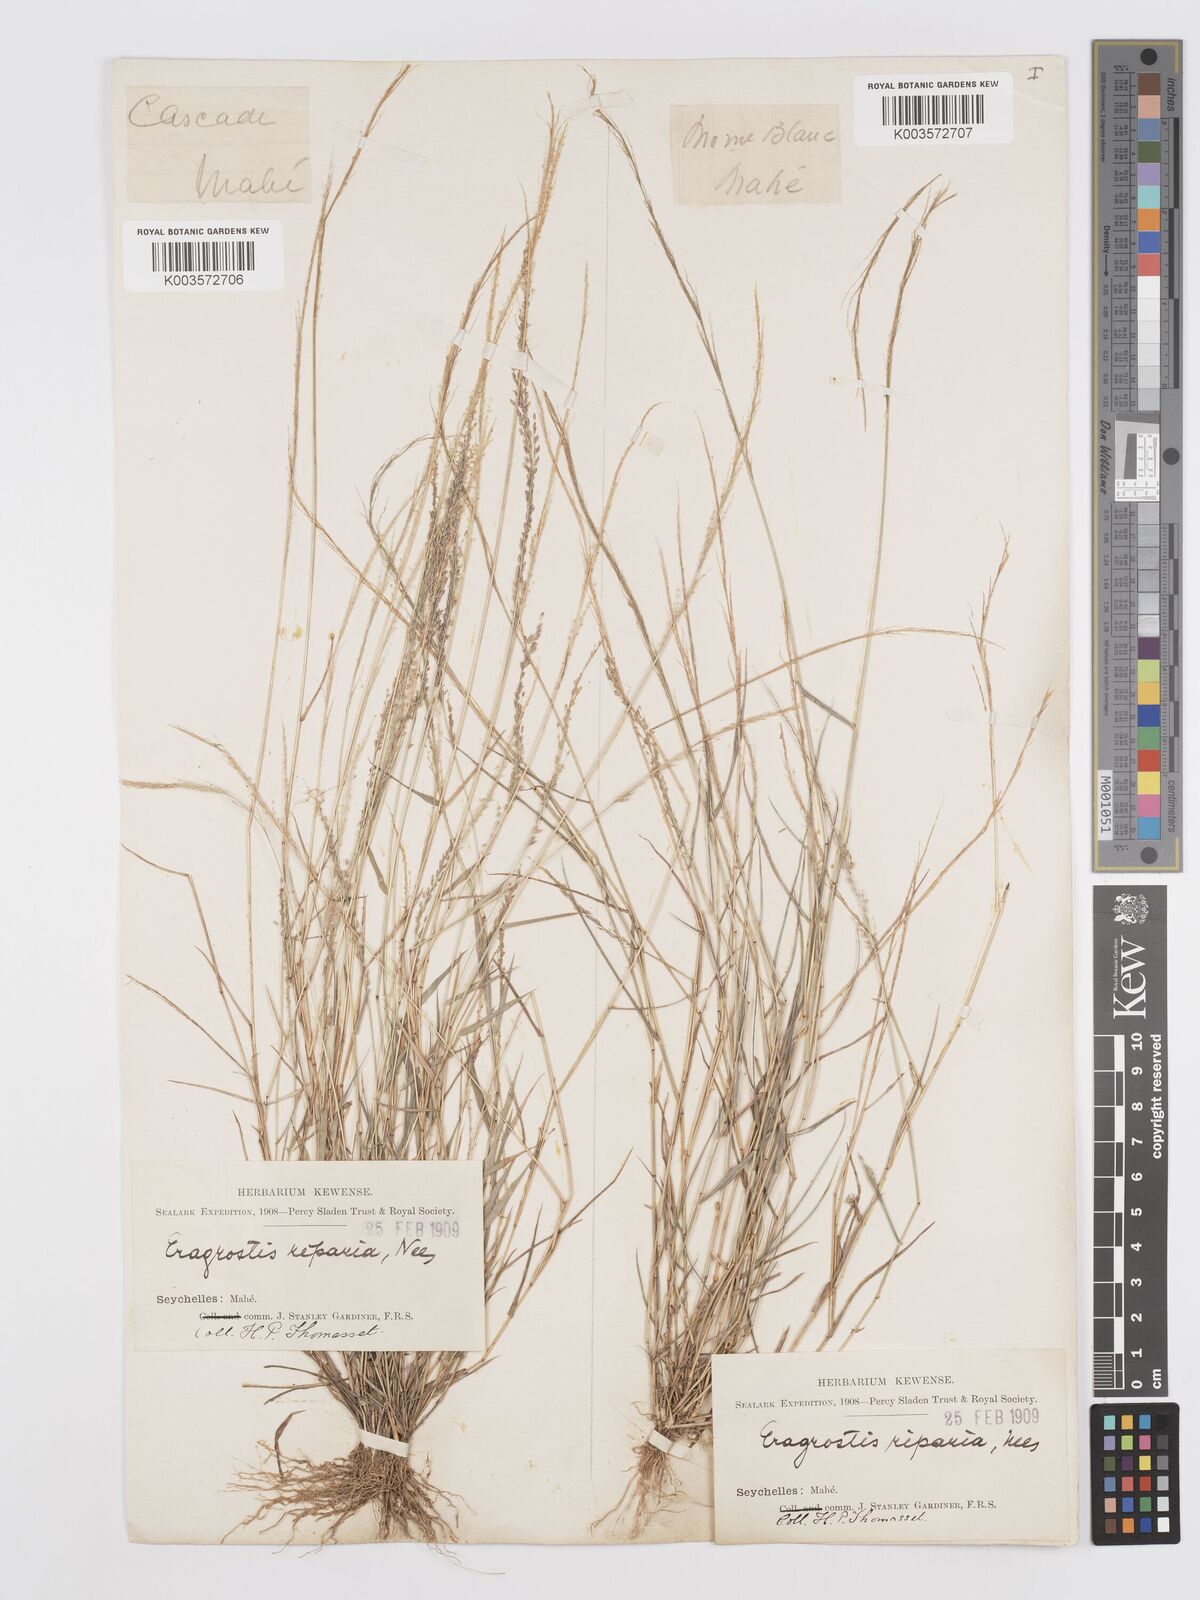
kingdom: Plantae
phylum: Tracheophyta
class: Liliopsida
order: Poales
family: Poaceae
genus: Eragrostis
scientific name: Eragrostis tenella
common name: Japanese lovegrass
